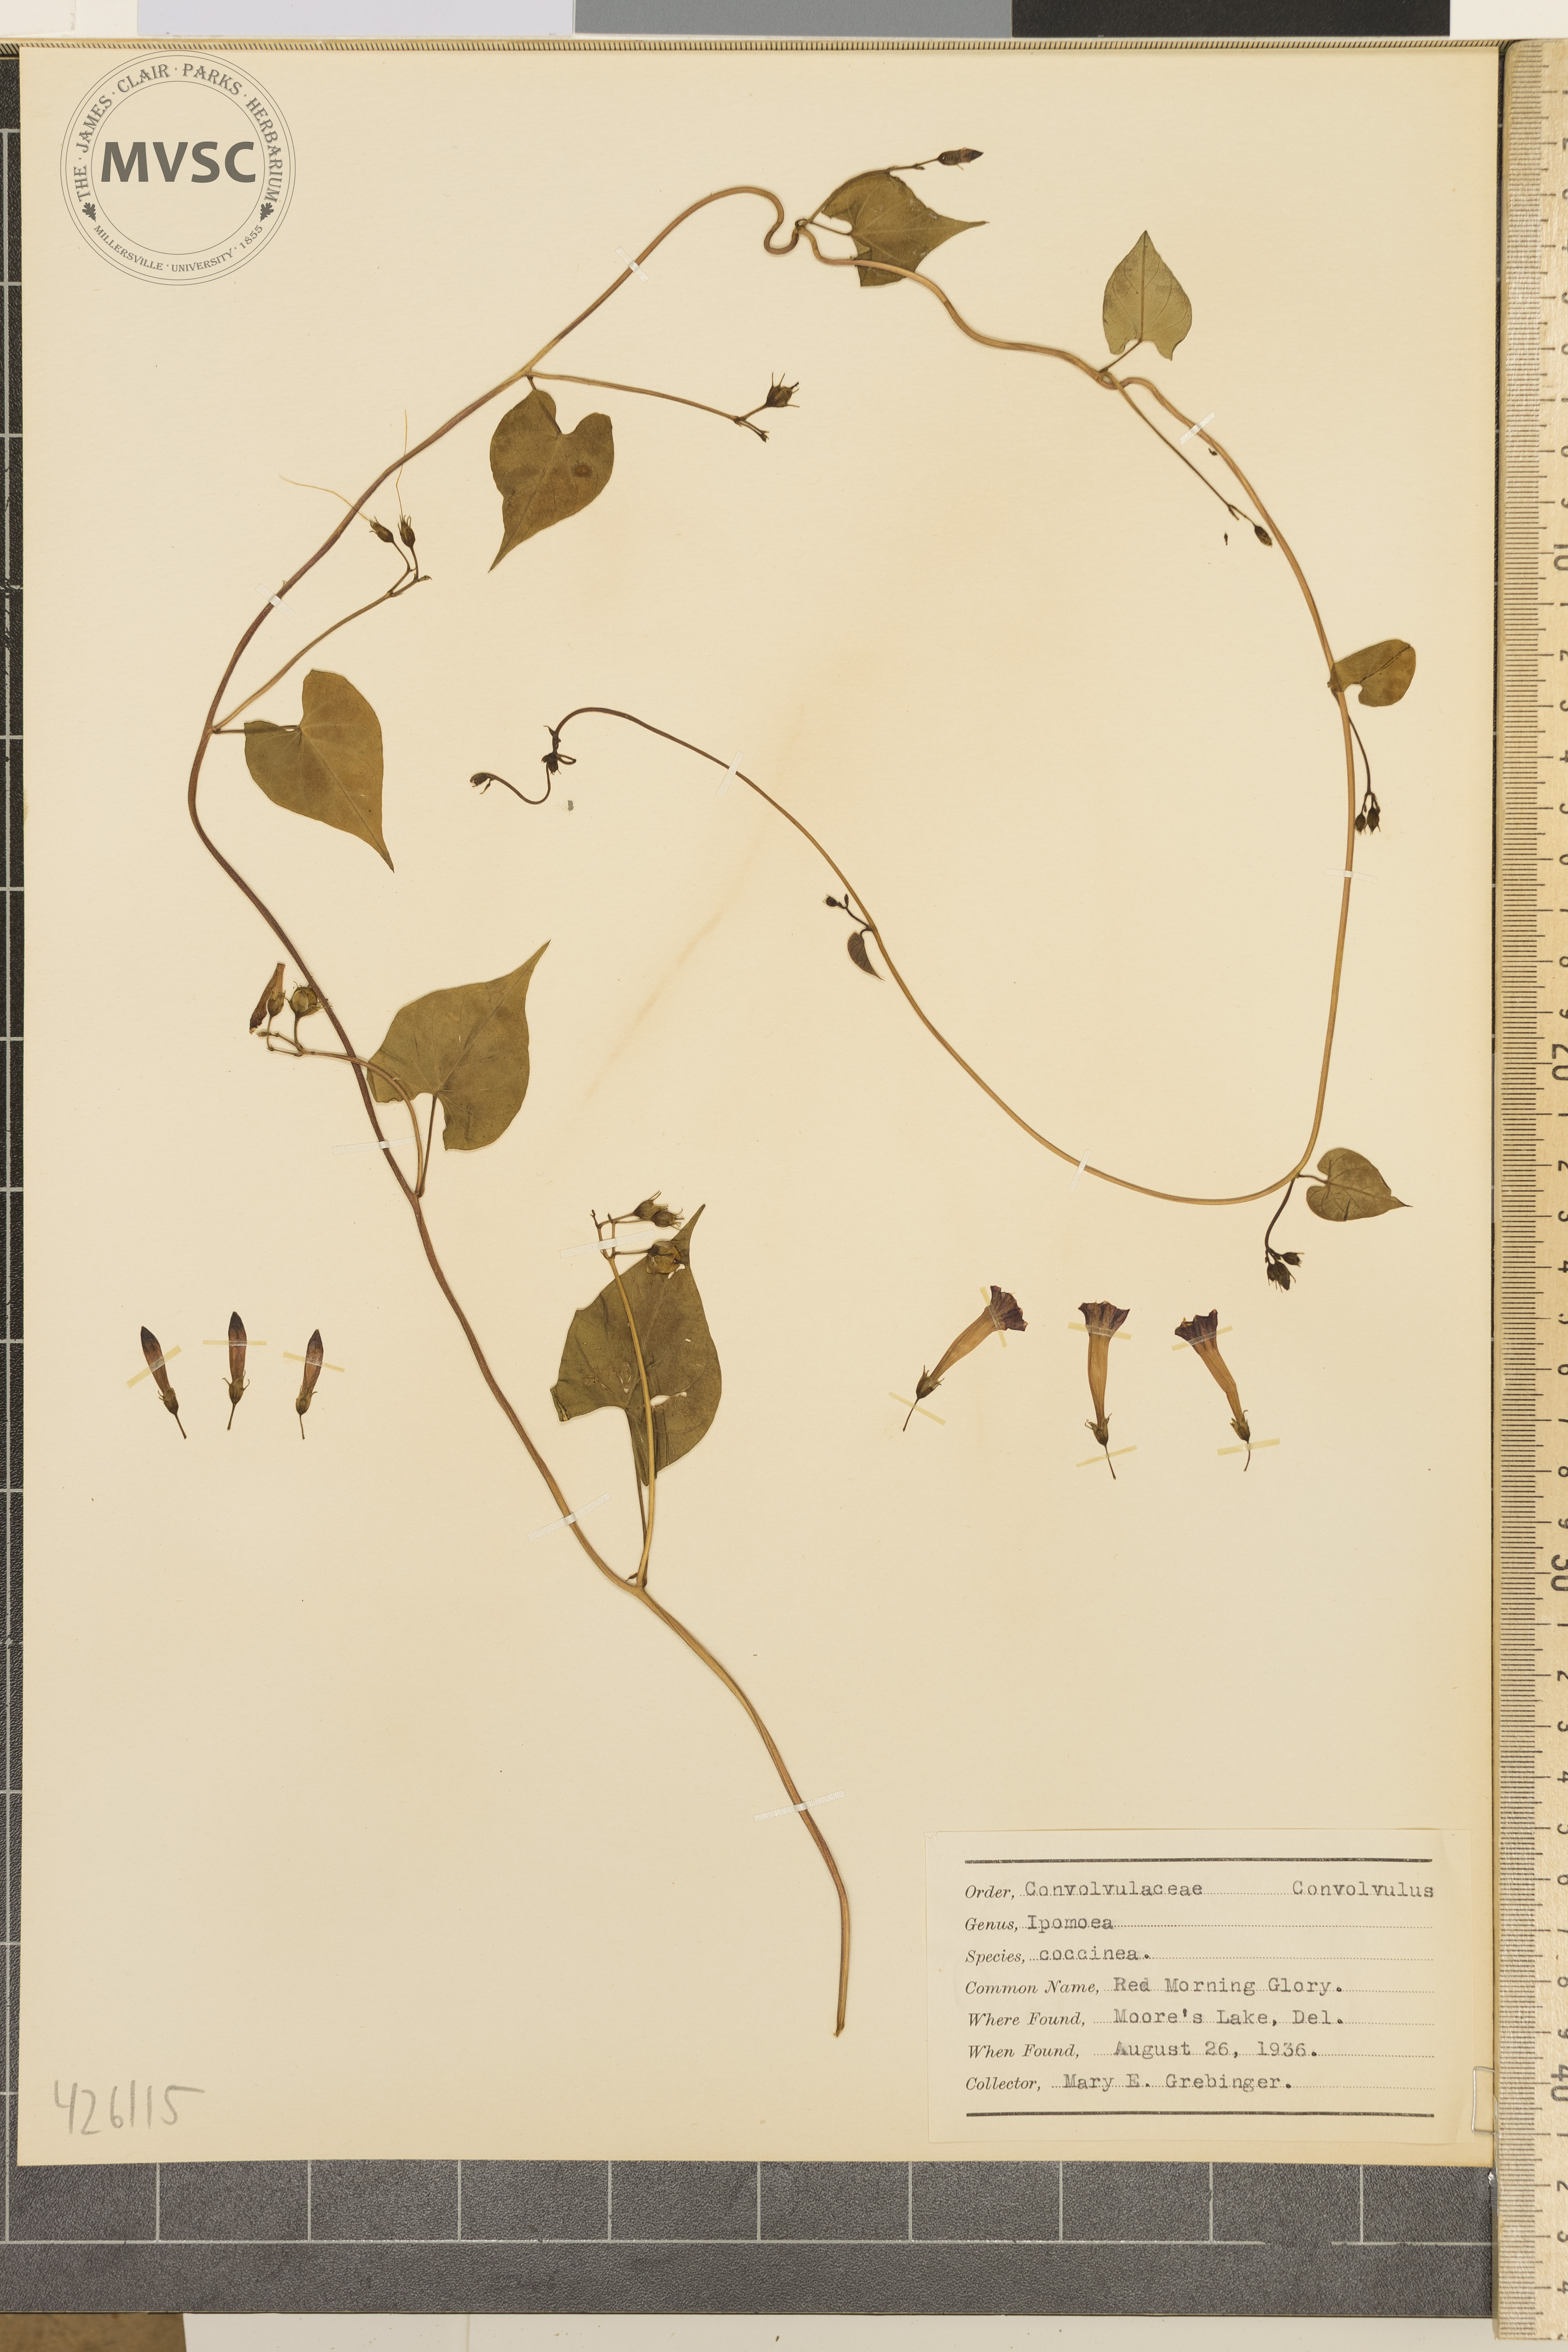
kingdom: Plantae
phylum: Tracheophyta
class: Magnoliopsida
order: Solanales
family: Convolvulaceae
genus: Ipomoea
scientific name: Ipomoea coccinea
